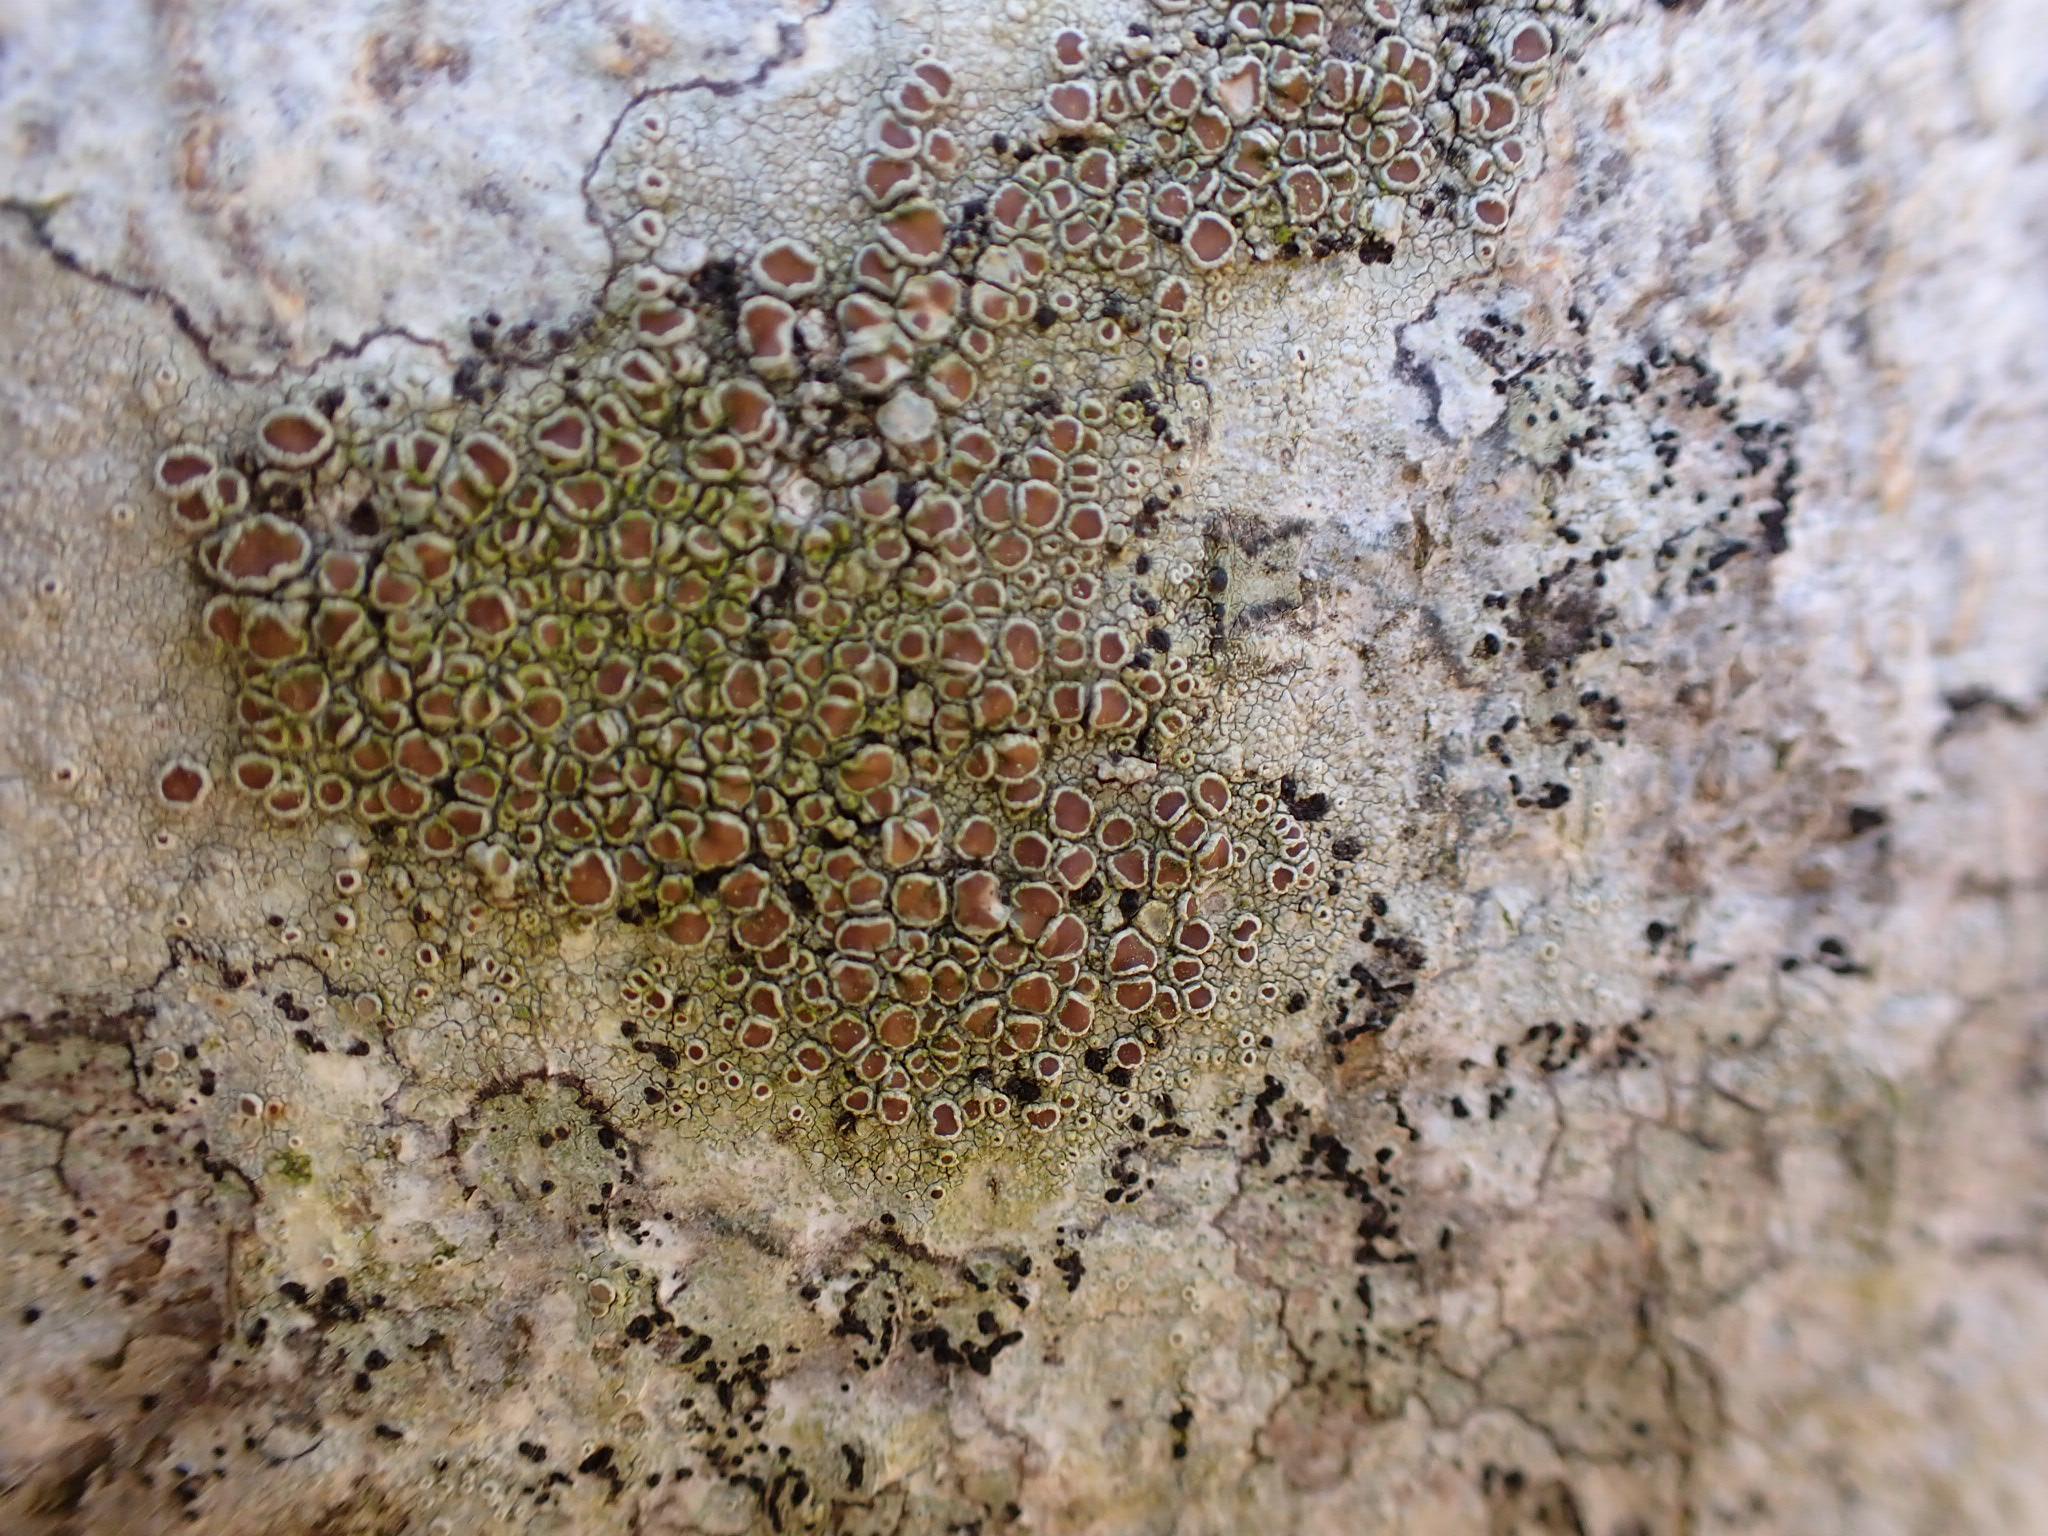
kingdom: Fungi
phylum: Ascomycota
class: Lecanoromycetes
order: Lecanorales
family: Lecanoraceae
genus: Lecanora
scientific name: Lecanora chlarotera
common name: brun kantskivelav
